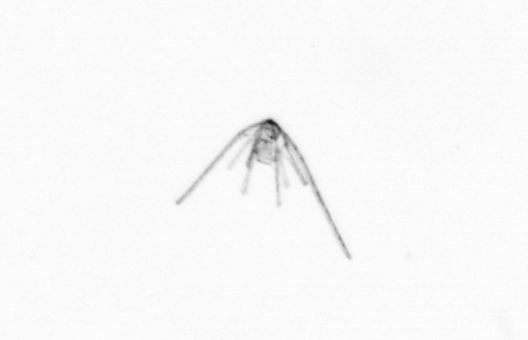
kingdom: Animalia
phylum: Echinodermata
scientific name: Echinodermata
